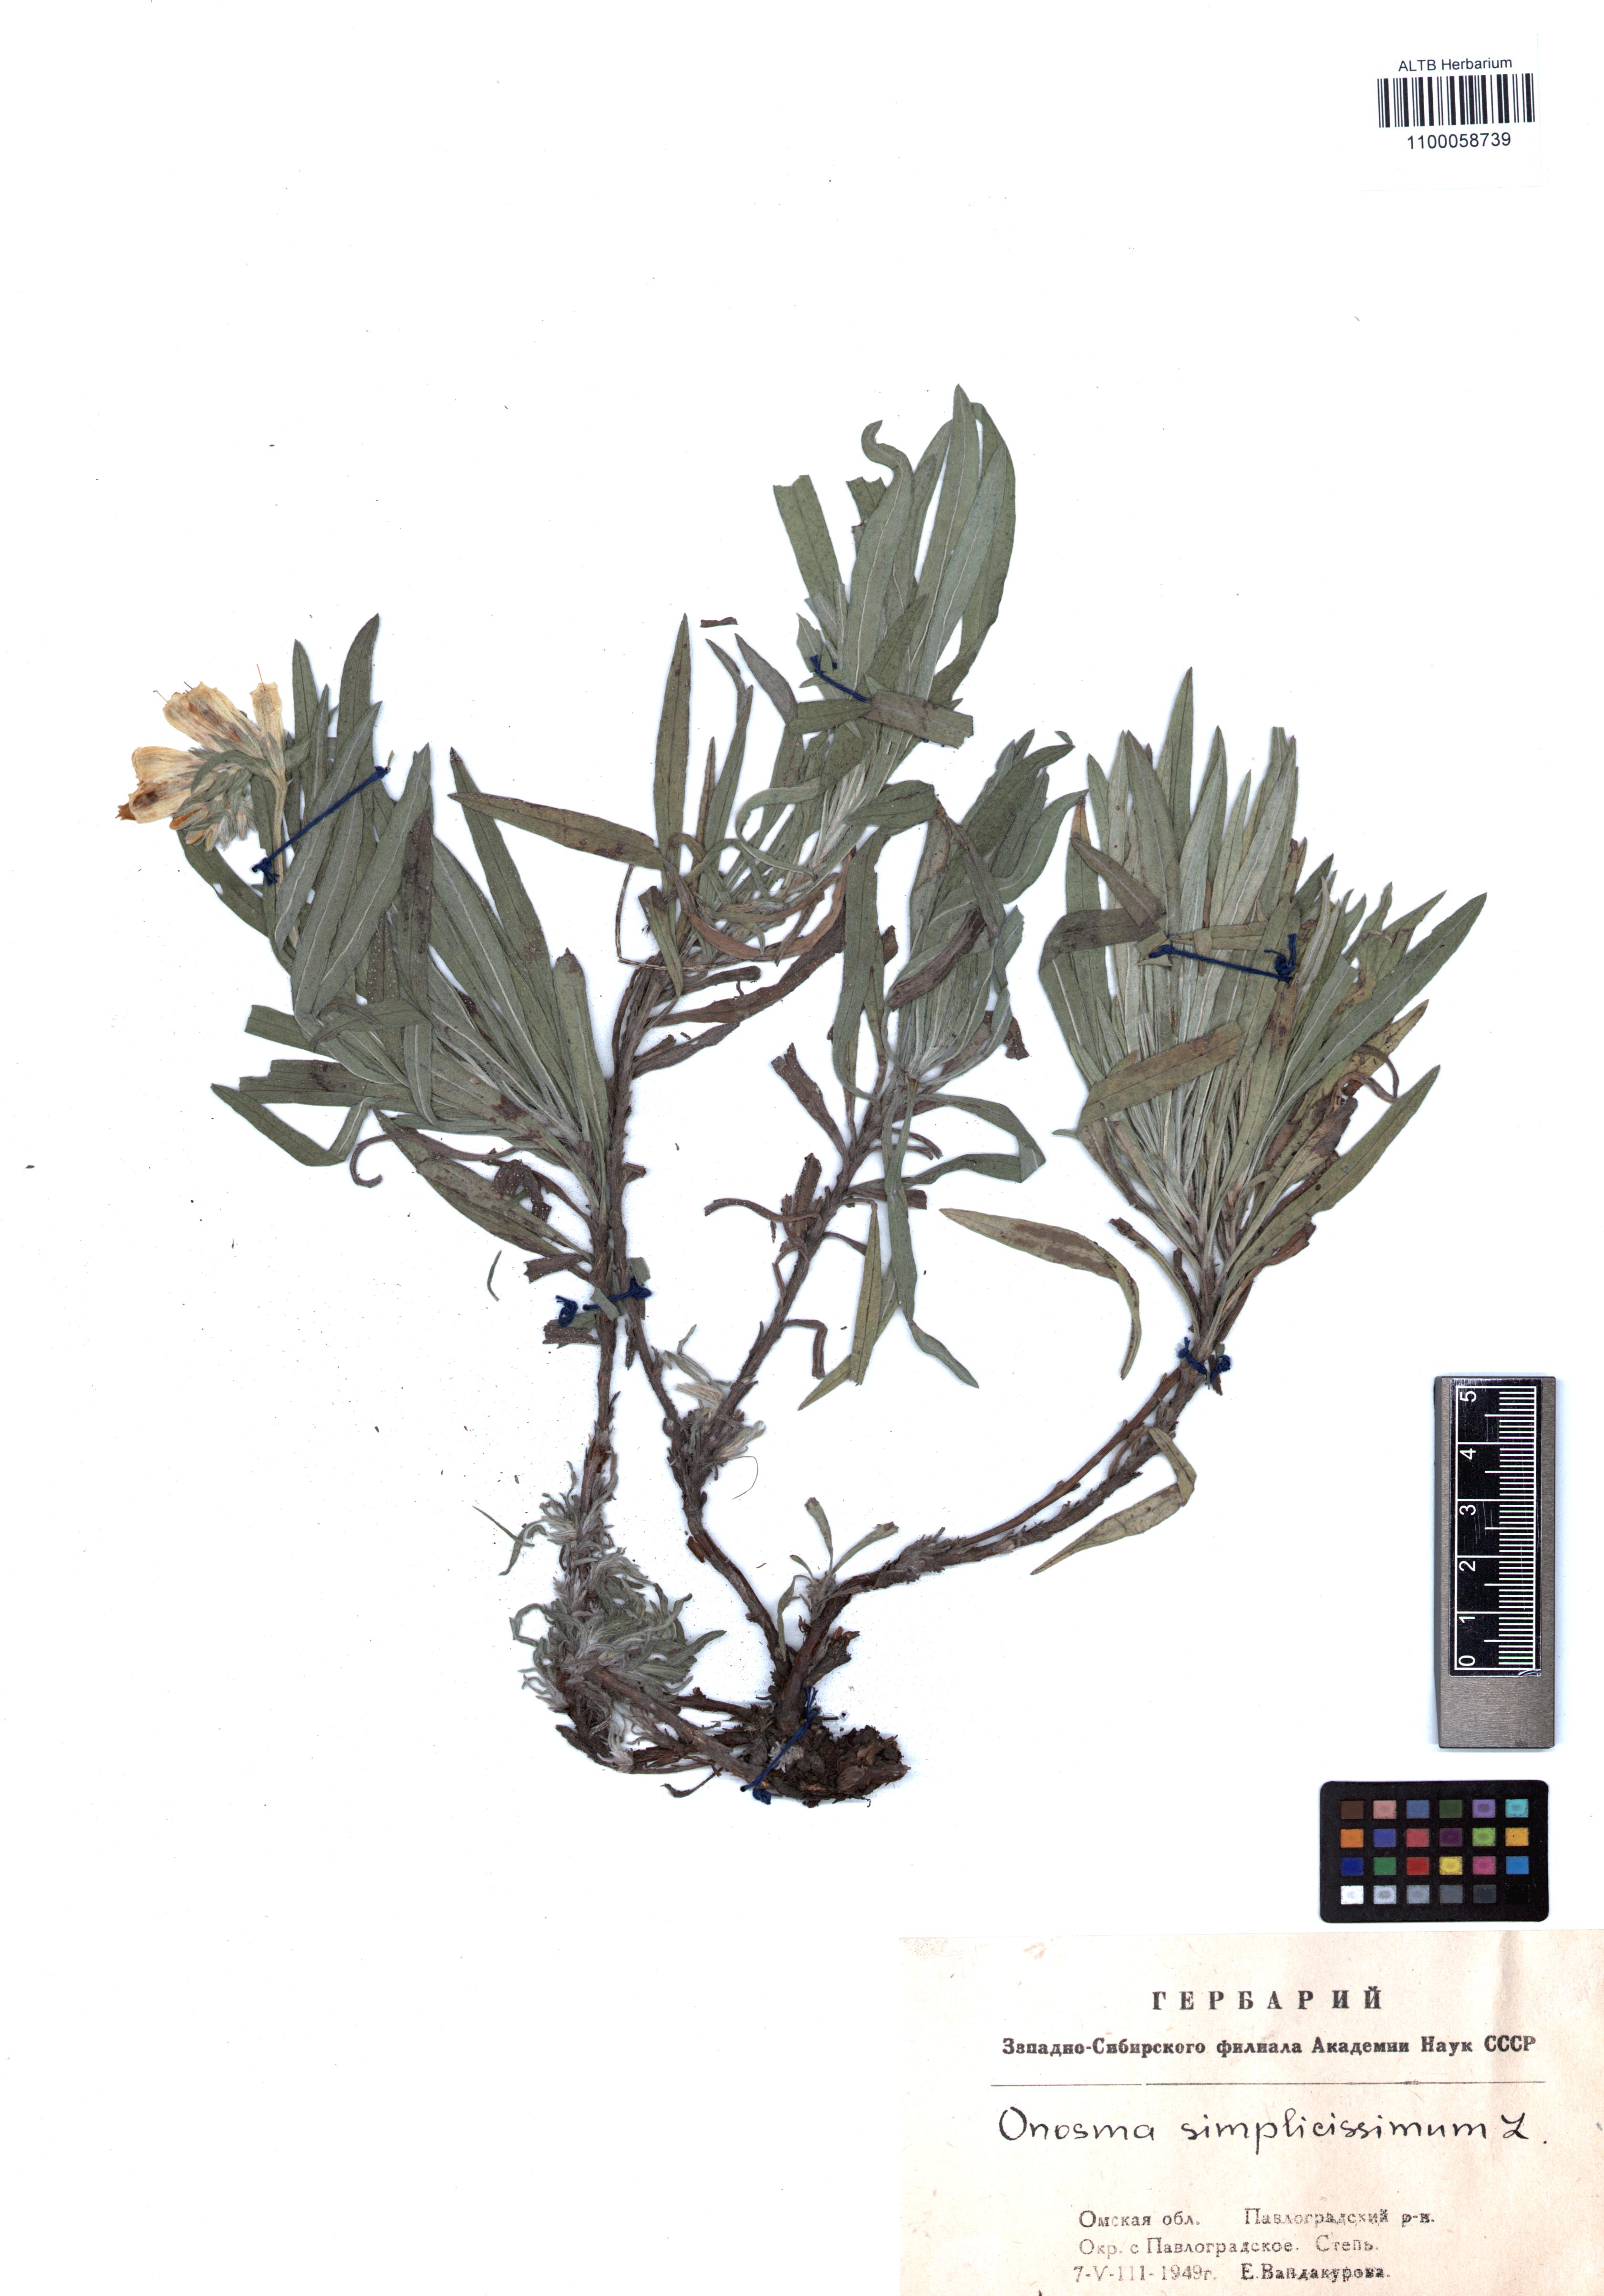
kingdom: Plantae
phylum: Tracheophyta
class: Magnoliopsida
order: Boraginales
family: Boraginaceae
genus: Onosma
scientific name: Onosma simplicissima
